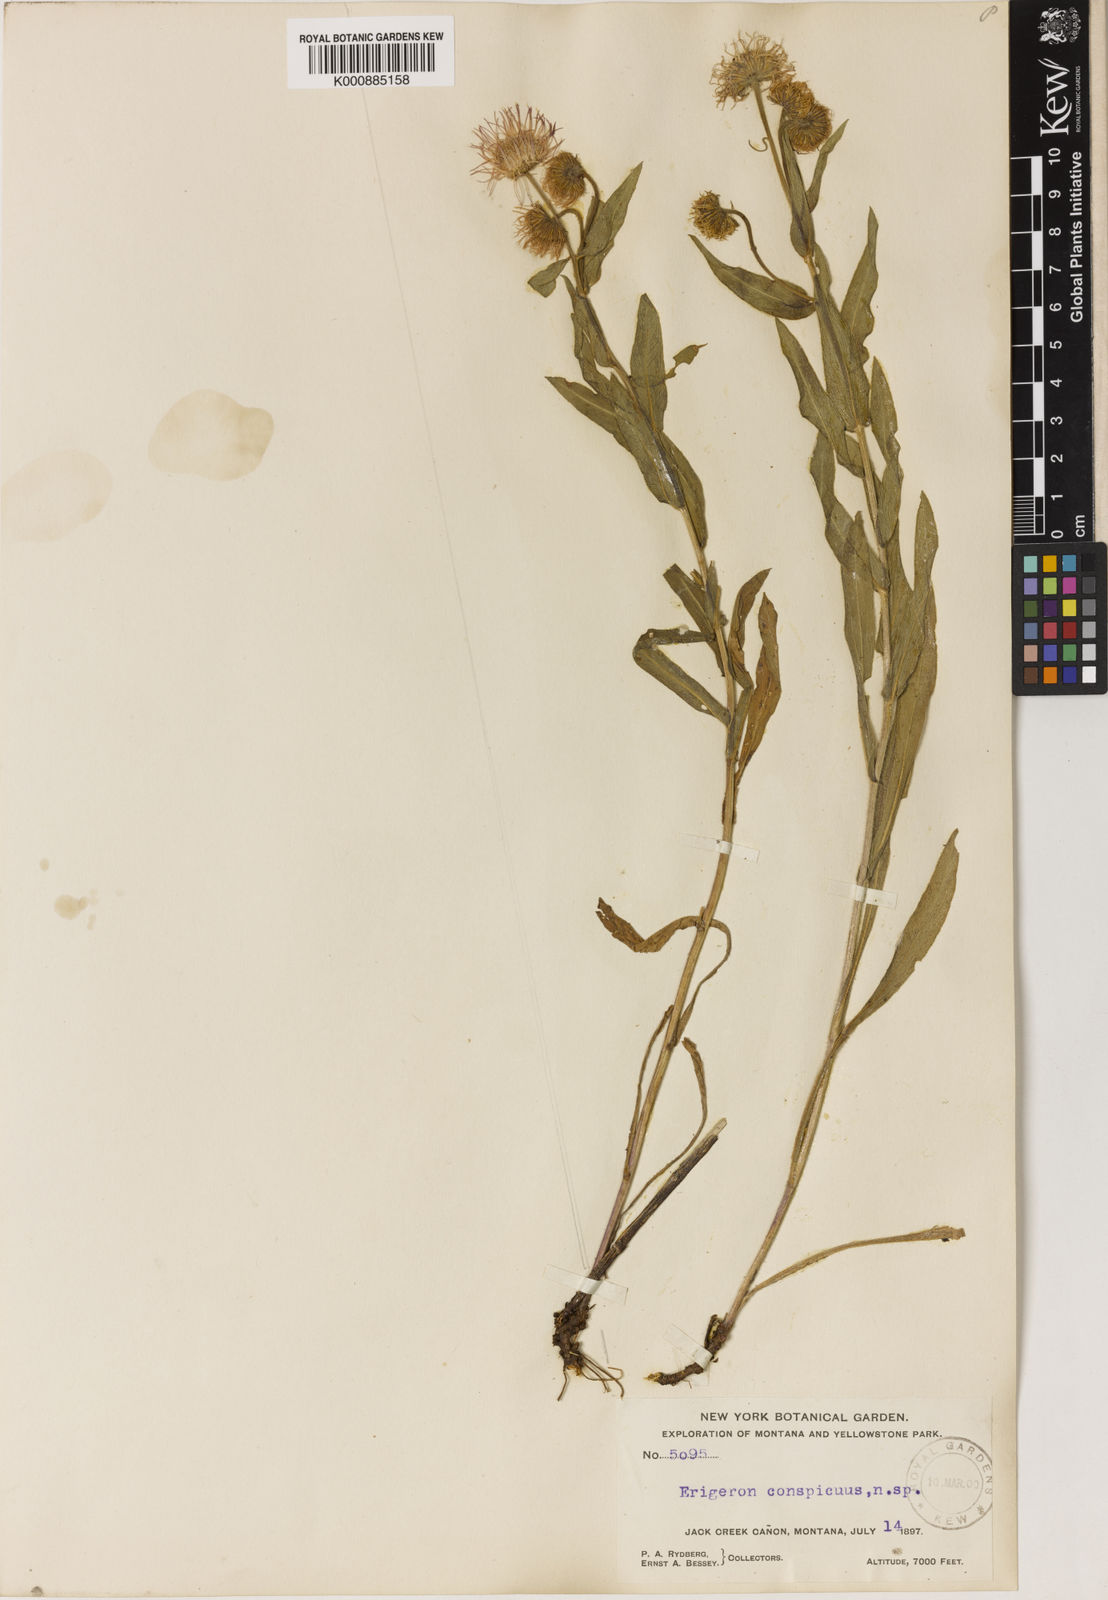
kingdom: Plantae
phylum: Tracheophyta
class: Magnoliopsida
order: Asterales
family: Asteraceae
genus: Erigeron
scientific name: Erigeron speciosus
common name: Aspen fleabane
